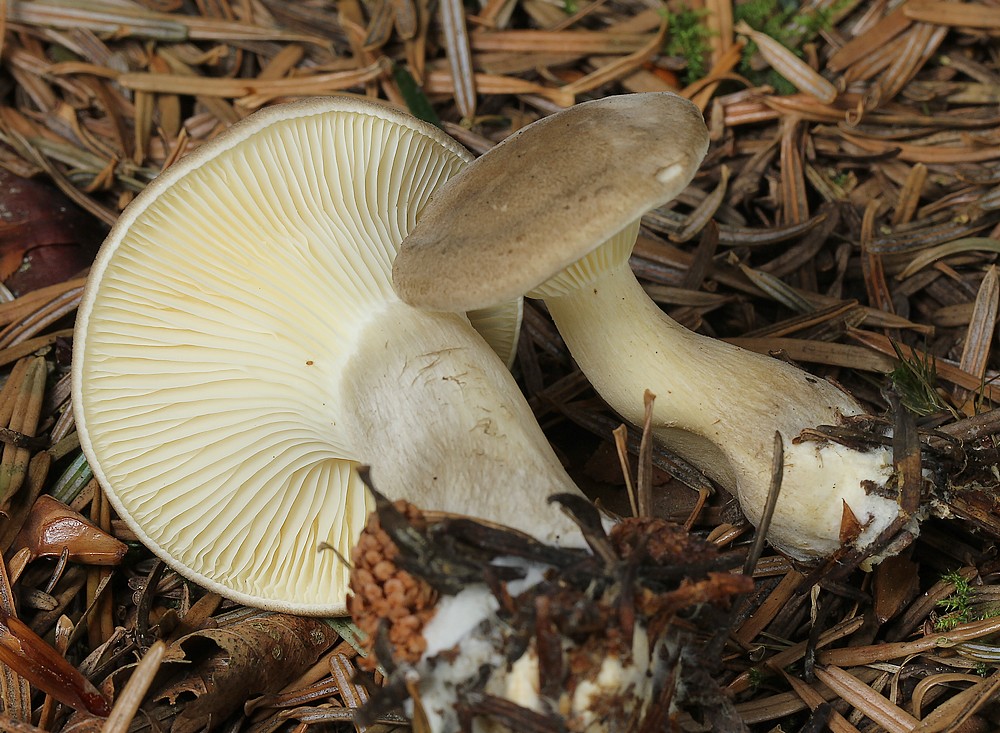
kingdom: Fungi
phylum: Basidiomycota
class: Agaricomycetes
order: Agaricales
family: Hygrophoraceae
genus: Ampulloclitocybe
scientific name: Ampulloclitocybe clavipes
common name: køllefod
